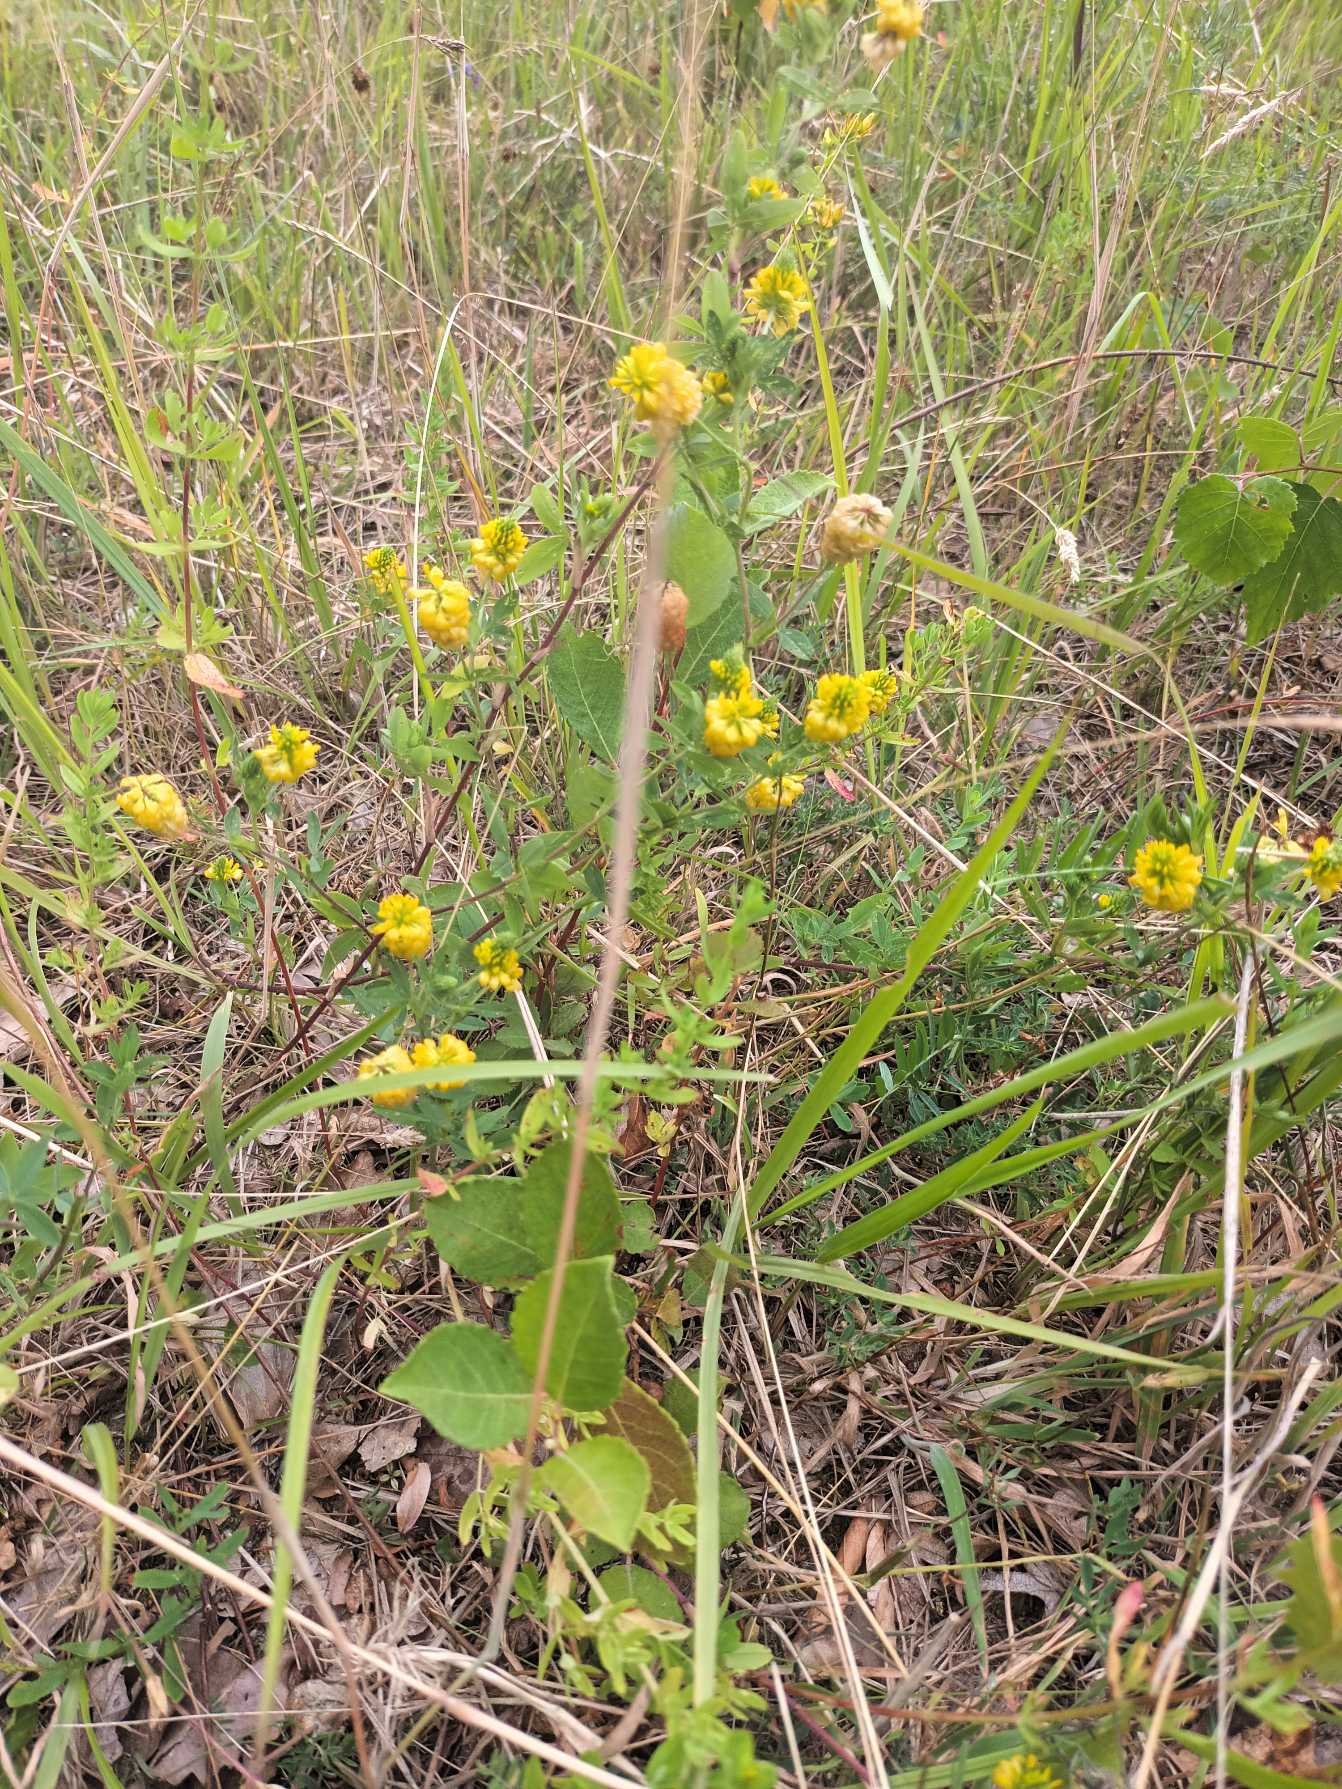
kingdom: Plantae
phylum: Tracheophyta
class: Magnoliopsida
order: Fabales
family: Fabaceae
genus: Trifolium
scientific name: Trifolium aureum
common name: Humle-kløver
